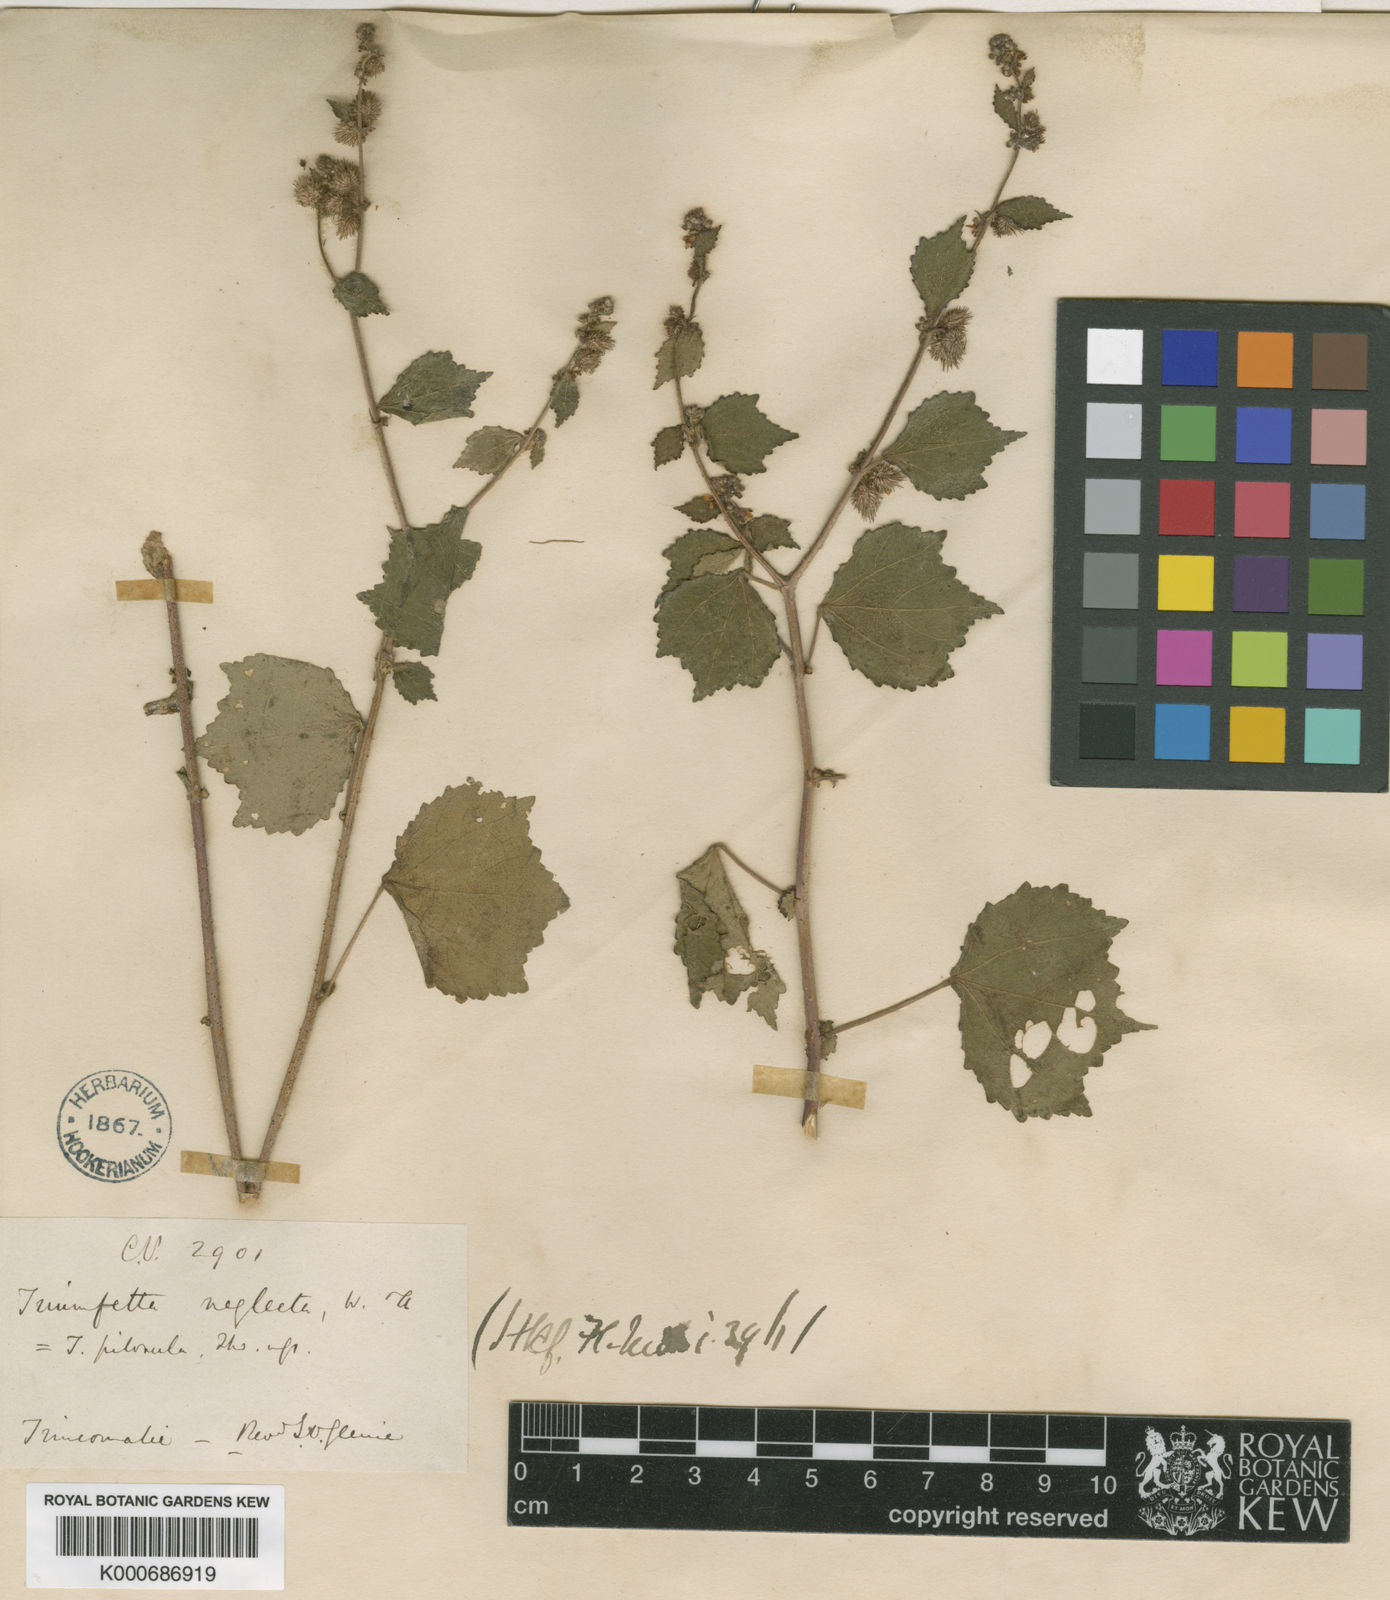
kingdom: Plantae
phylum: Tracheophyta
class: Magnoliopsida
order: Malvales
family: Malvaceae
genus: Triumfetta
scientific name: Triumfetta pentandra
